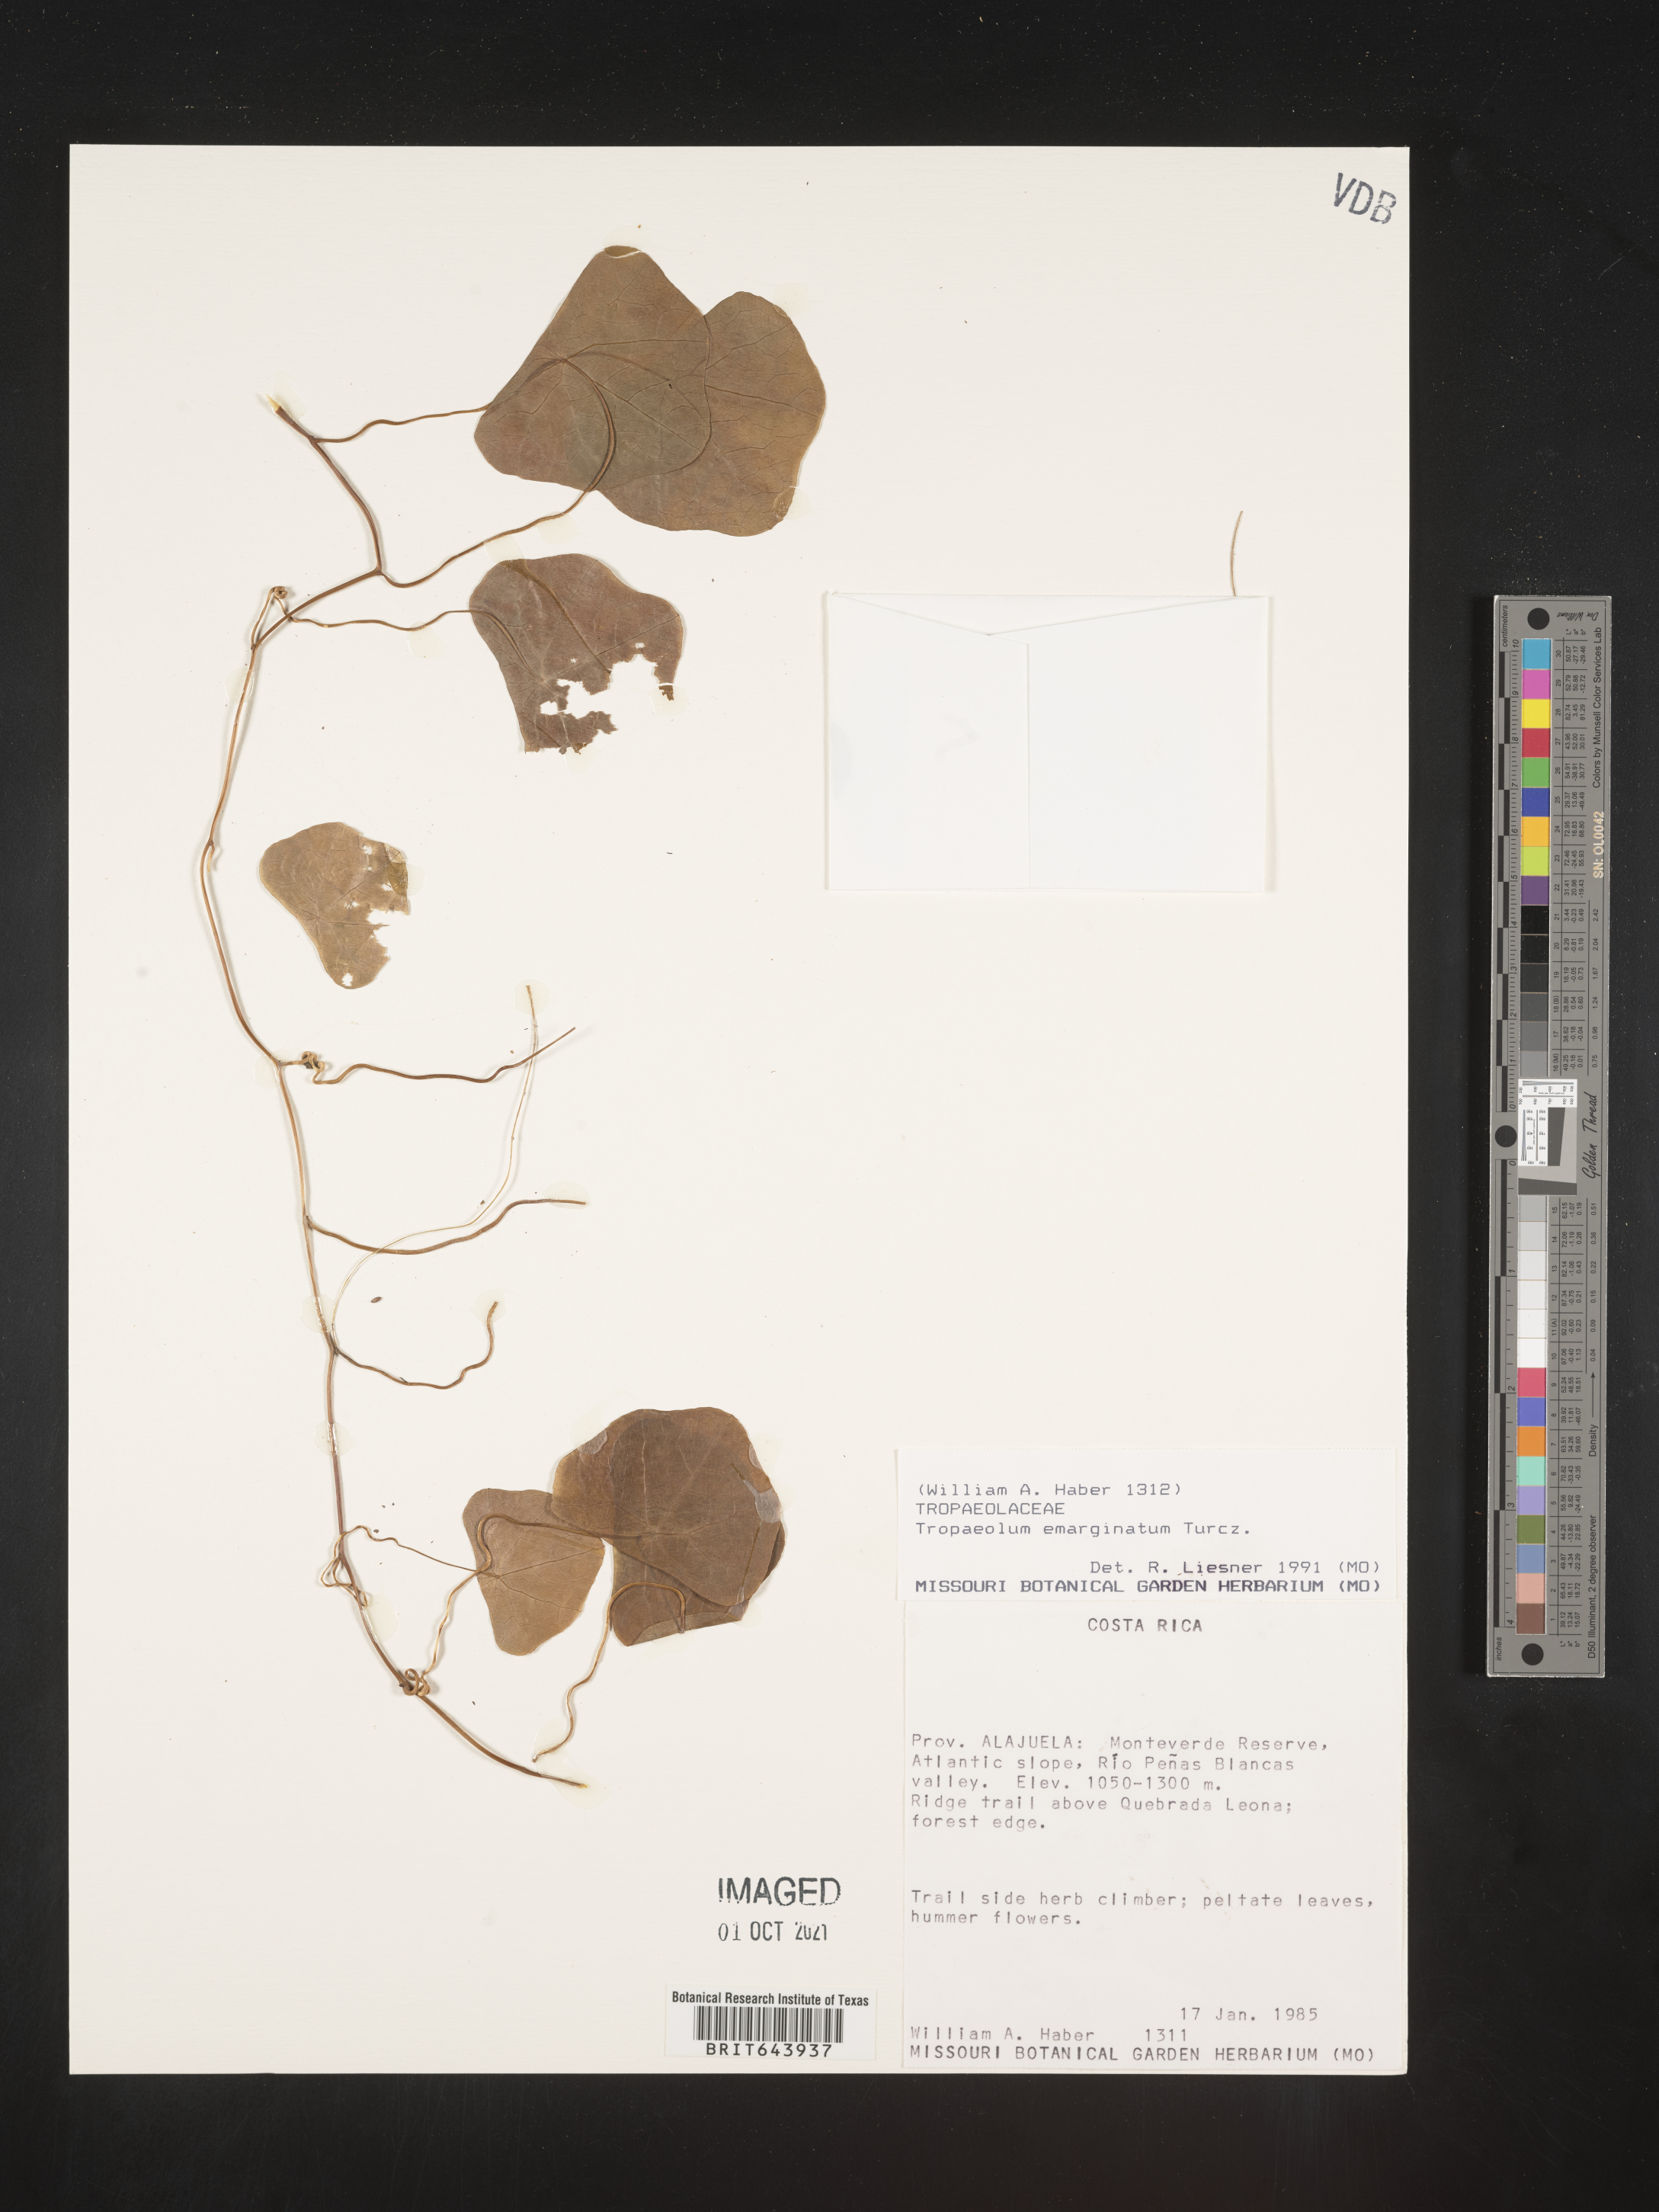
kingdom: Plantae
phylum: Tracheophyta
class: Magnoliopsida
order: Brassicales
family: Tropaeolaceae
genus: Tropaeolum
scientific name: Tropaeolum
